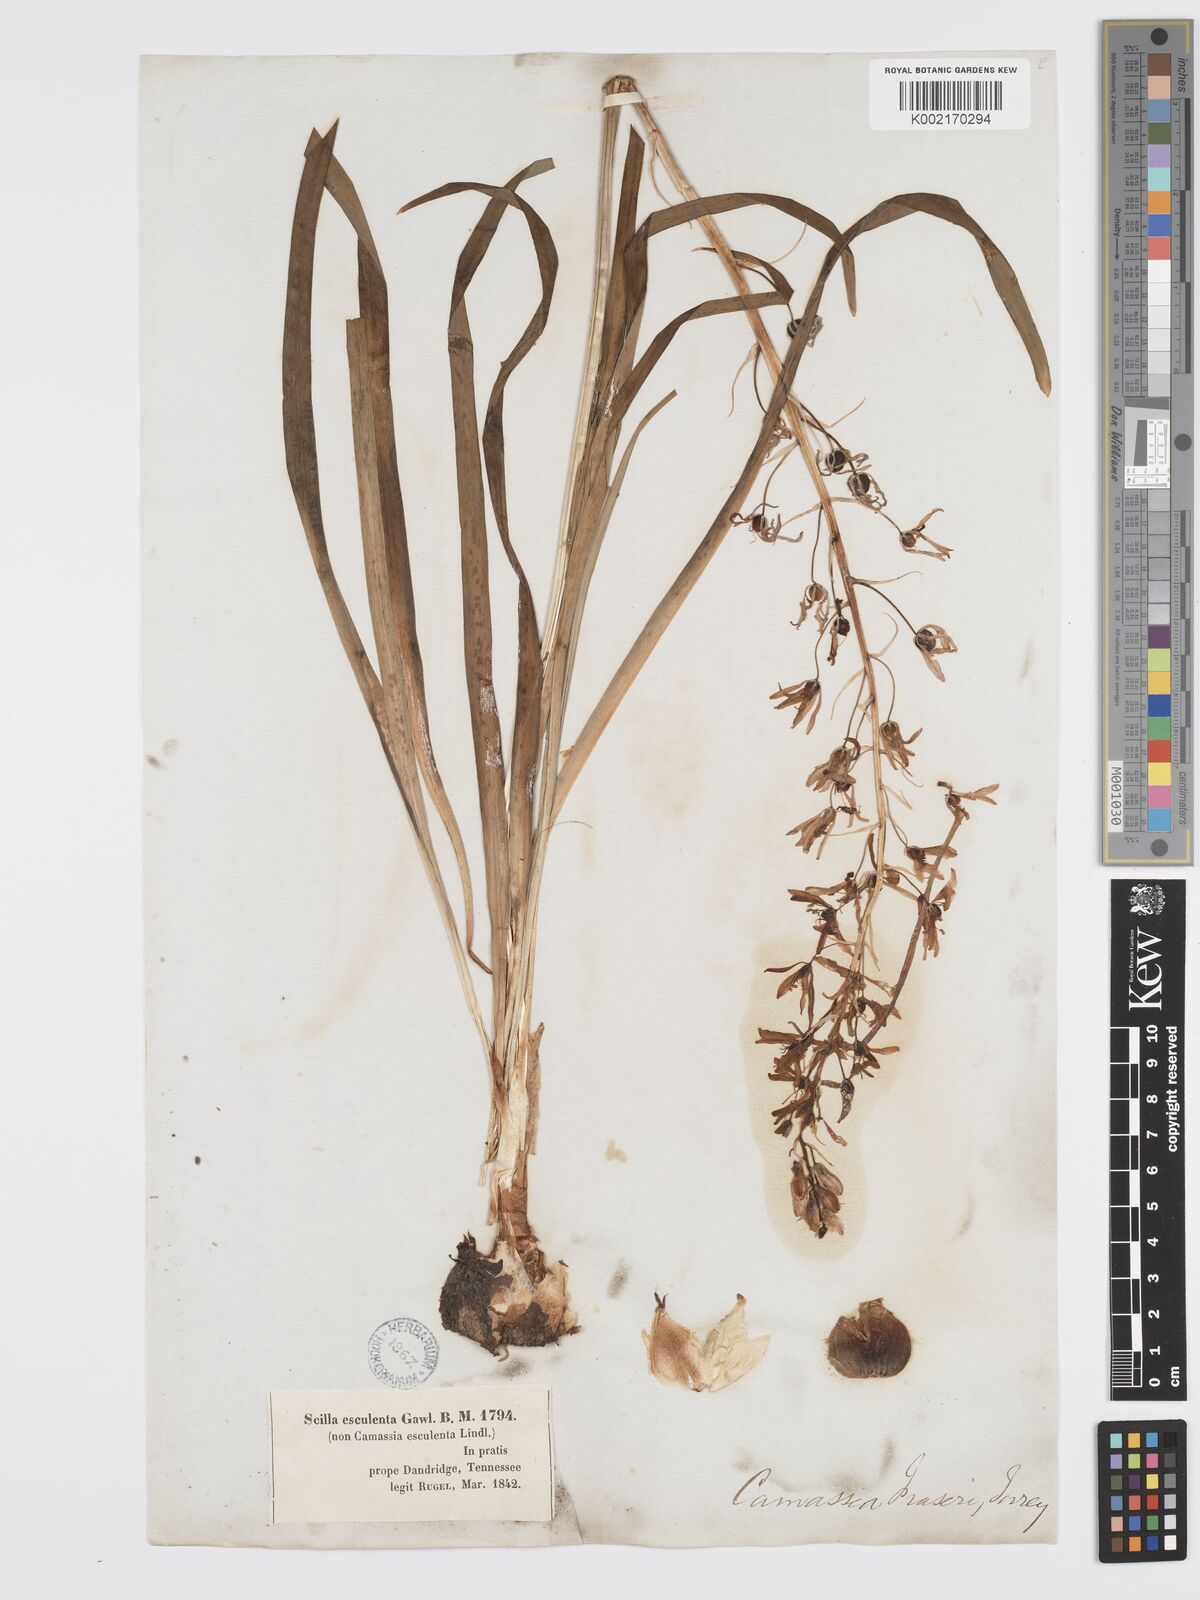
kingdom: Plantae
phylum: Tracheophyta
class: Liliopsida
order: Asparagales
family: Asparagaceae
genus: Camassia
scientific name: Camassia scilloides
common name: Wild hyacinth
